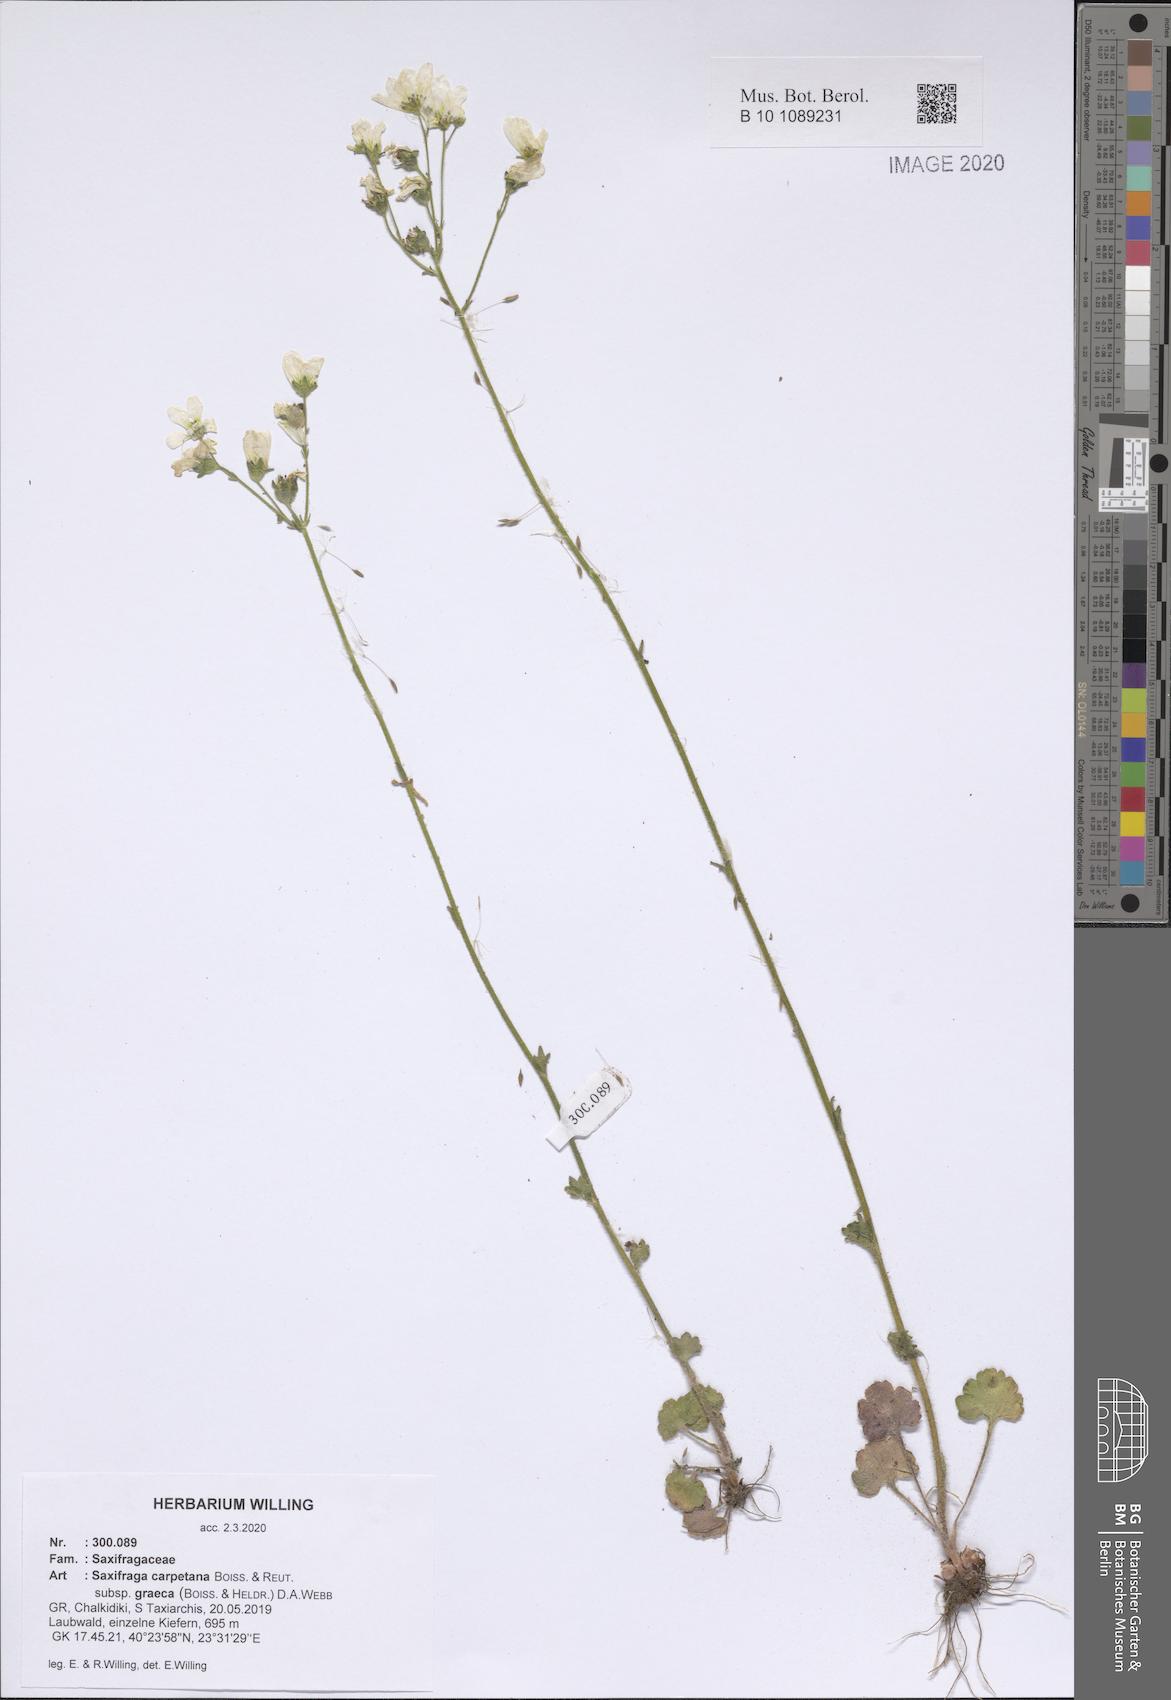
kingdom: Plantae
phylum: Tracheophyta
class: Magnoliopsida
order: Saxifragales
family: Saxifragaceae
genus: Saxifraga
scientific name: Saxifraga carpetana
